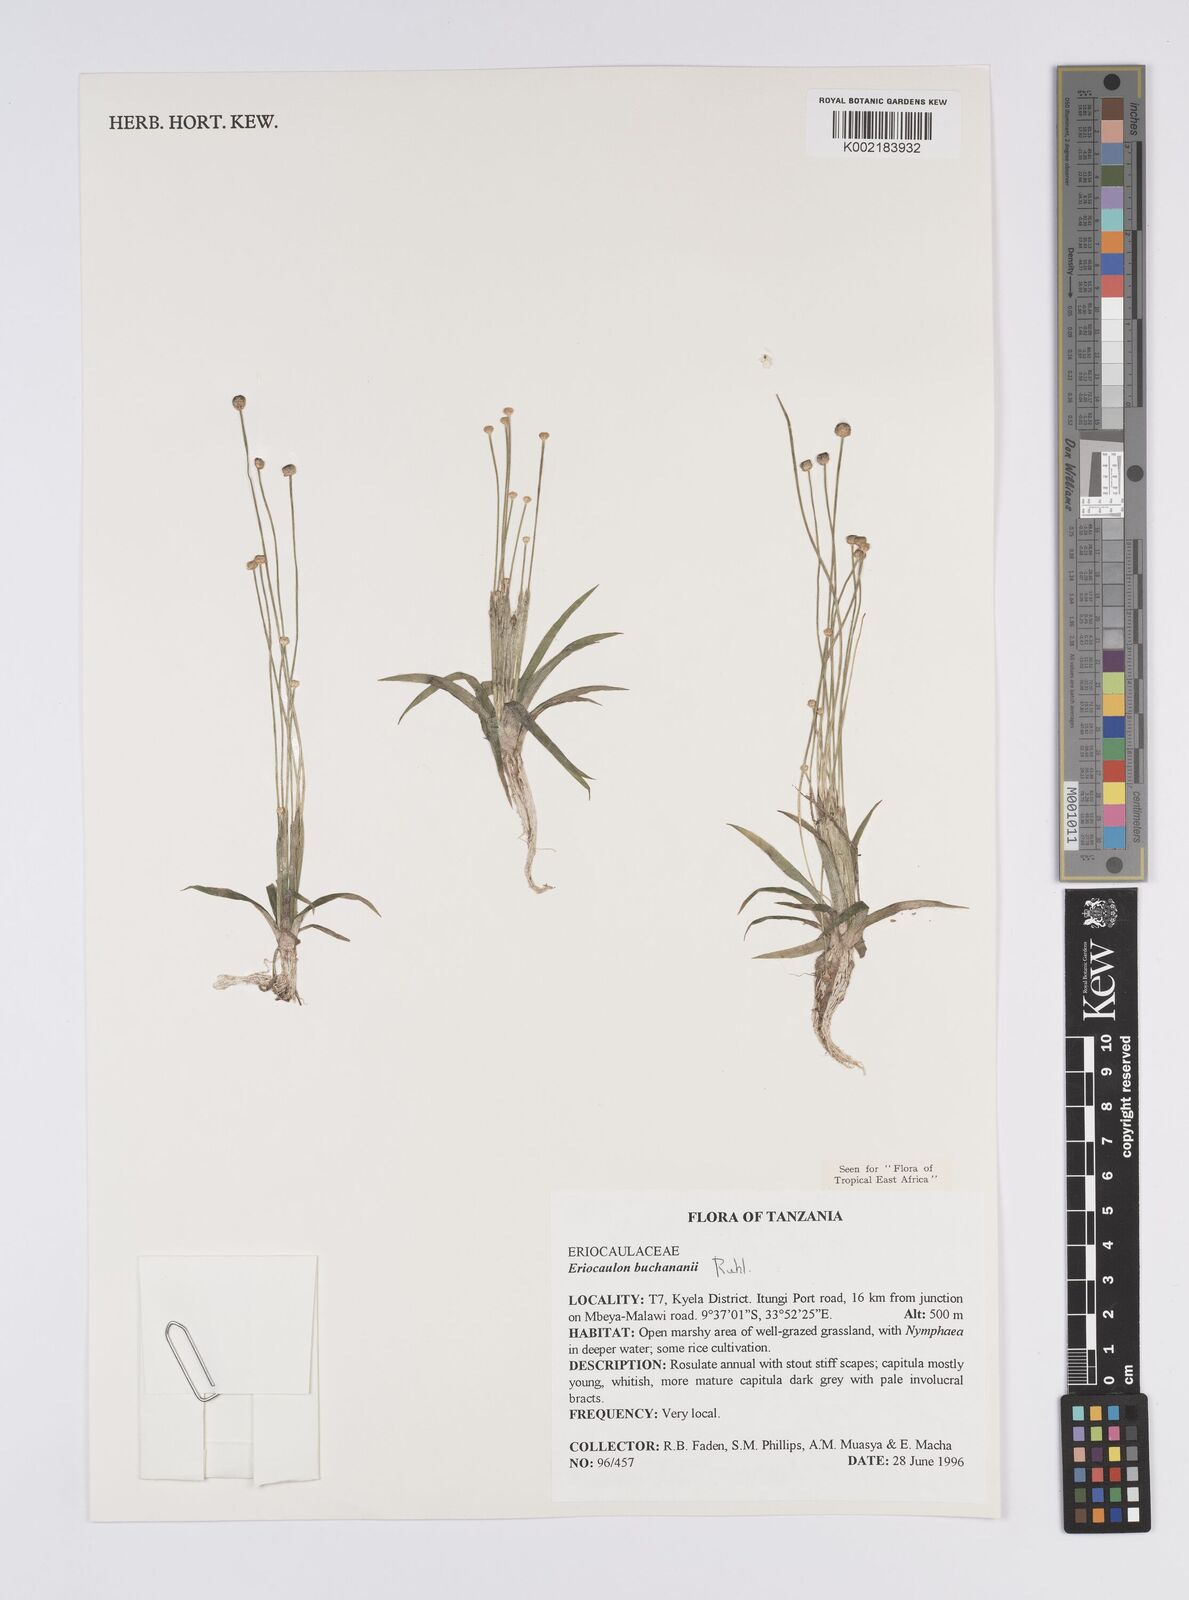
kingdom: Plantae
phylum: Tracheophyta
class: Liliopsida
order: Poales
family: Eriocaulaceae
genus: Eriocaulon
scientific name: Eriocaulon buchananii
